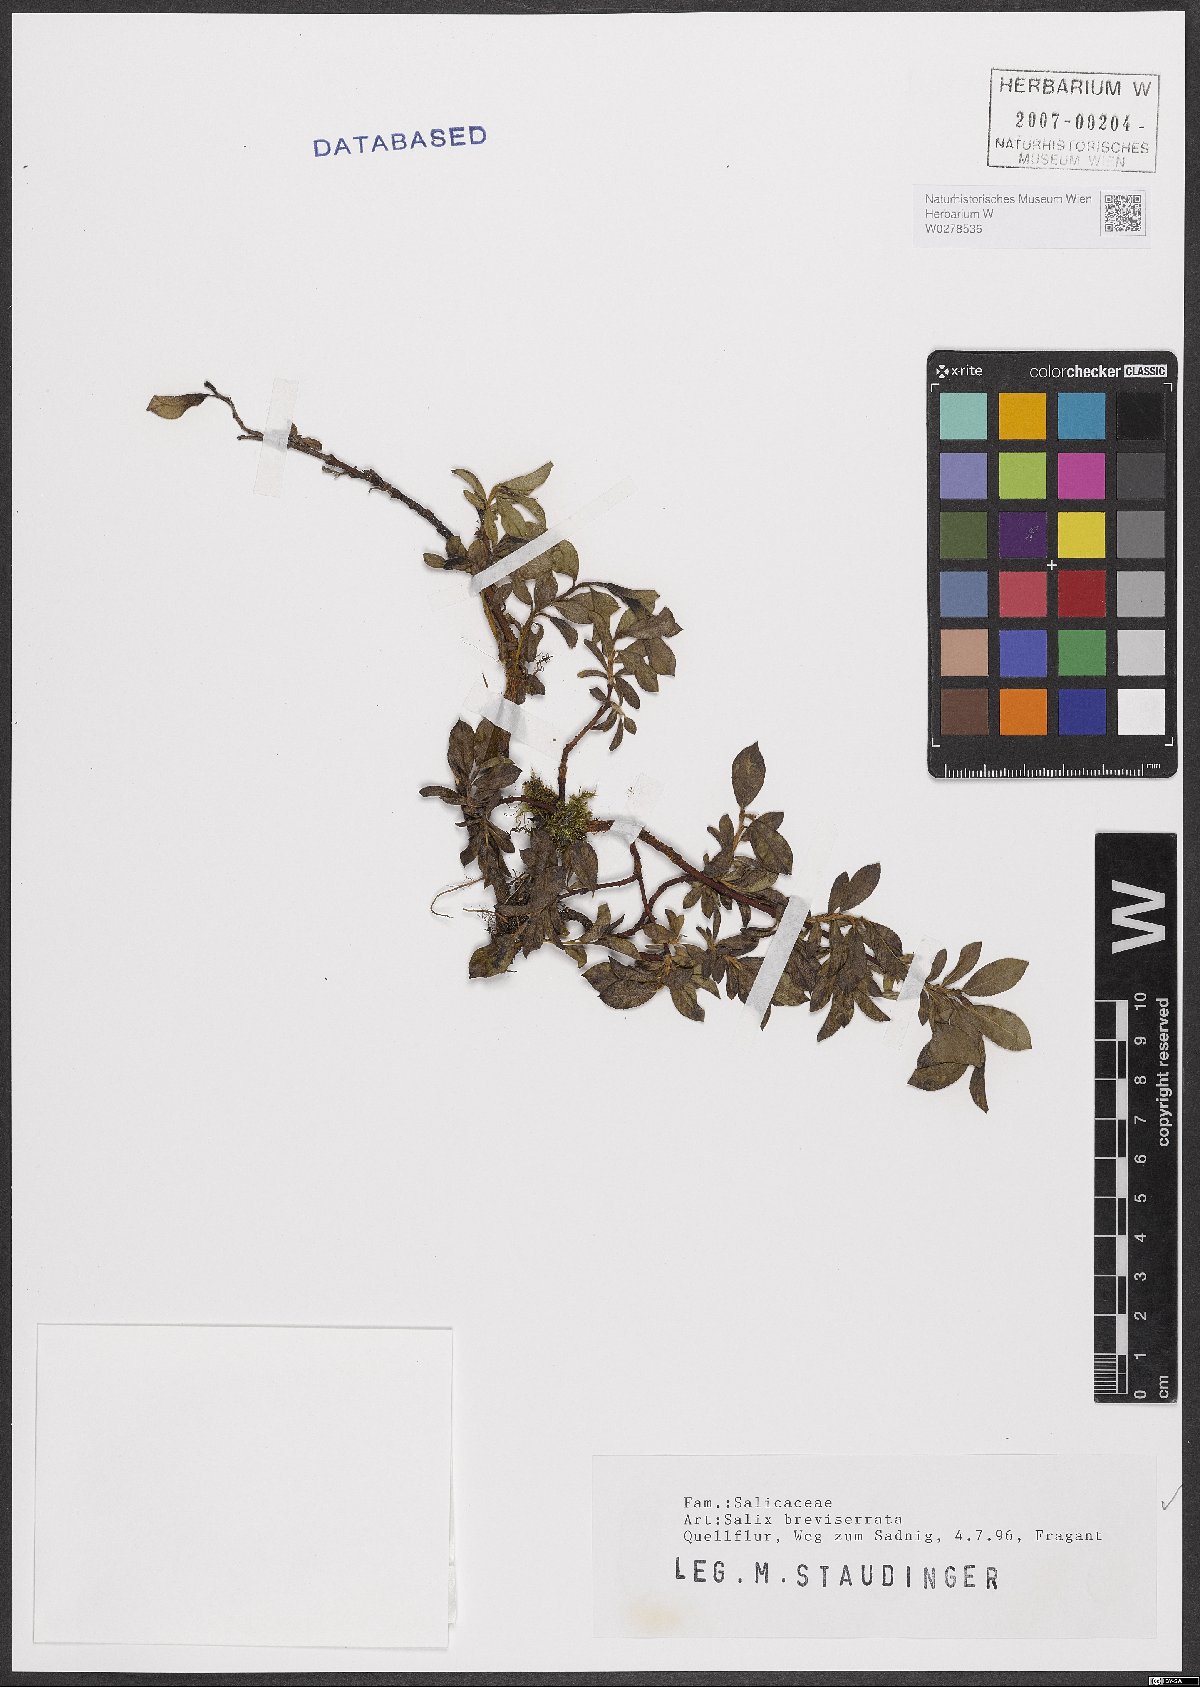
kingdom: Plantae
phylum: Tracheophyta
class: Magnoliopsida
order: Malpighiales
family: Salicaceae
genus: Salix
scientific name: Salix breviserrata
